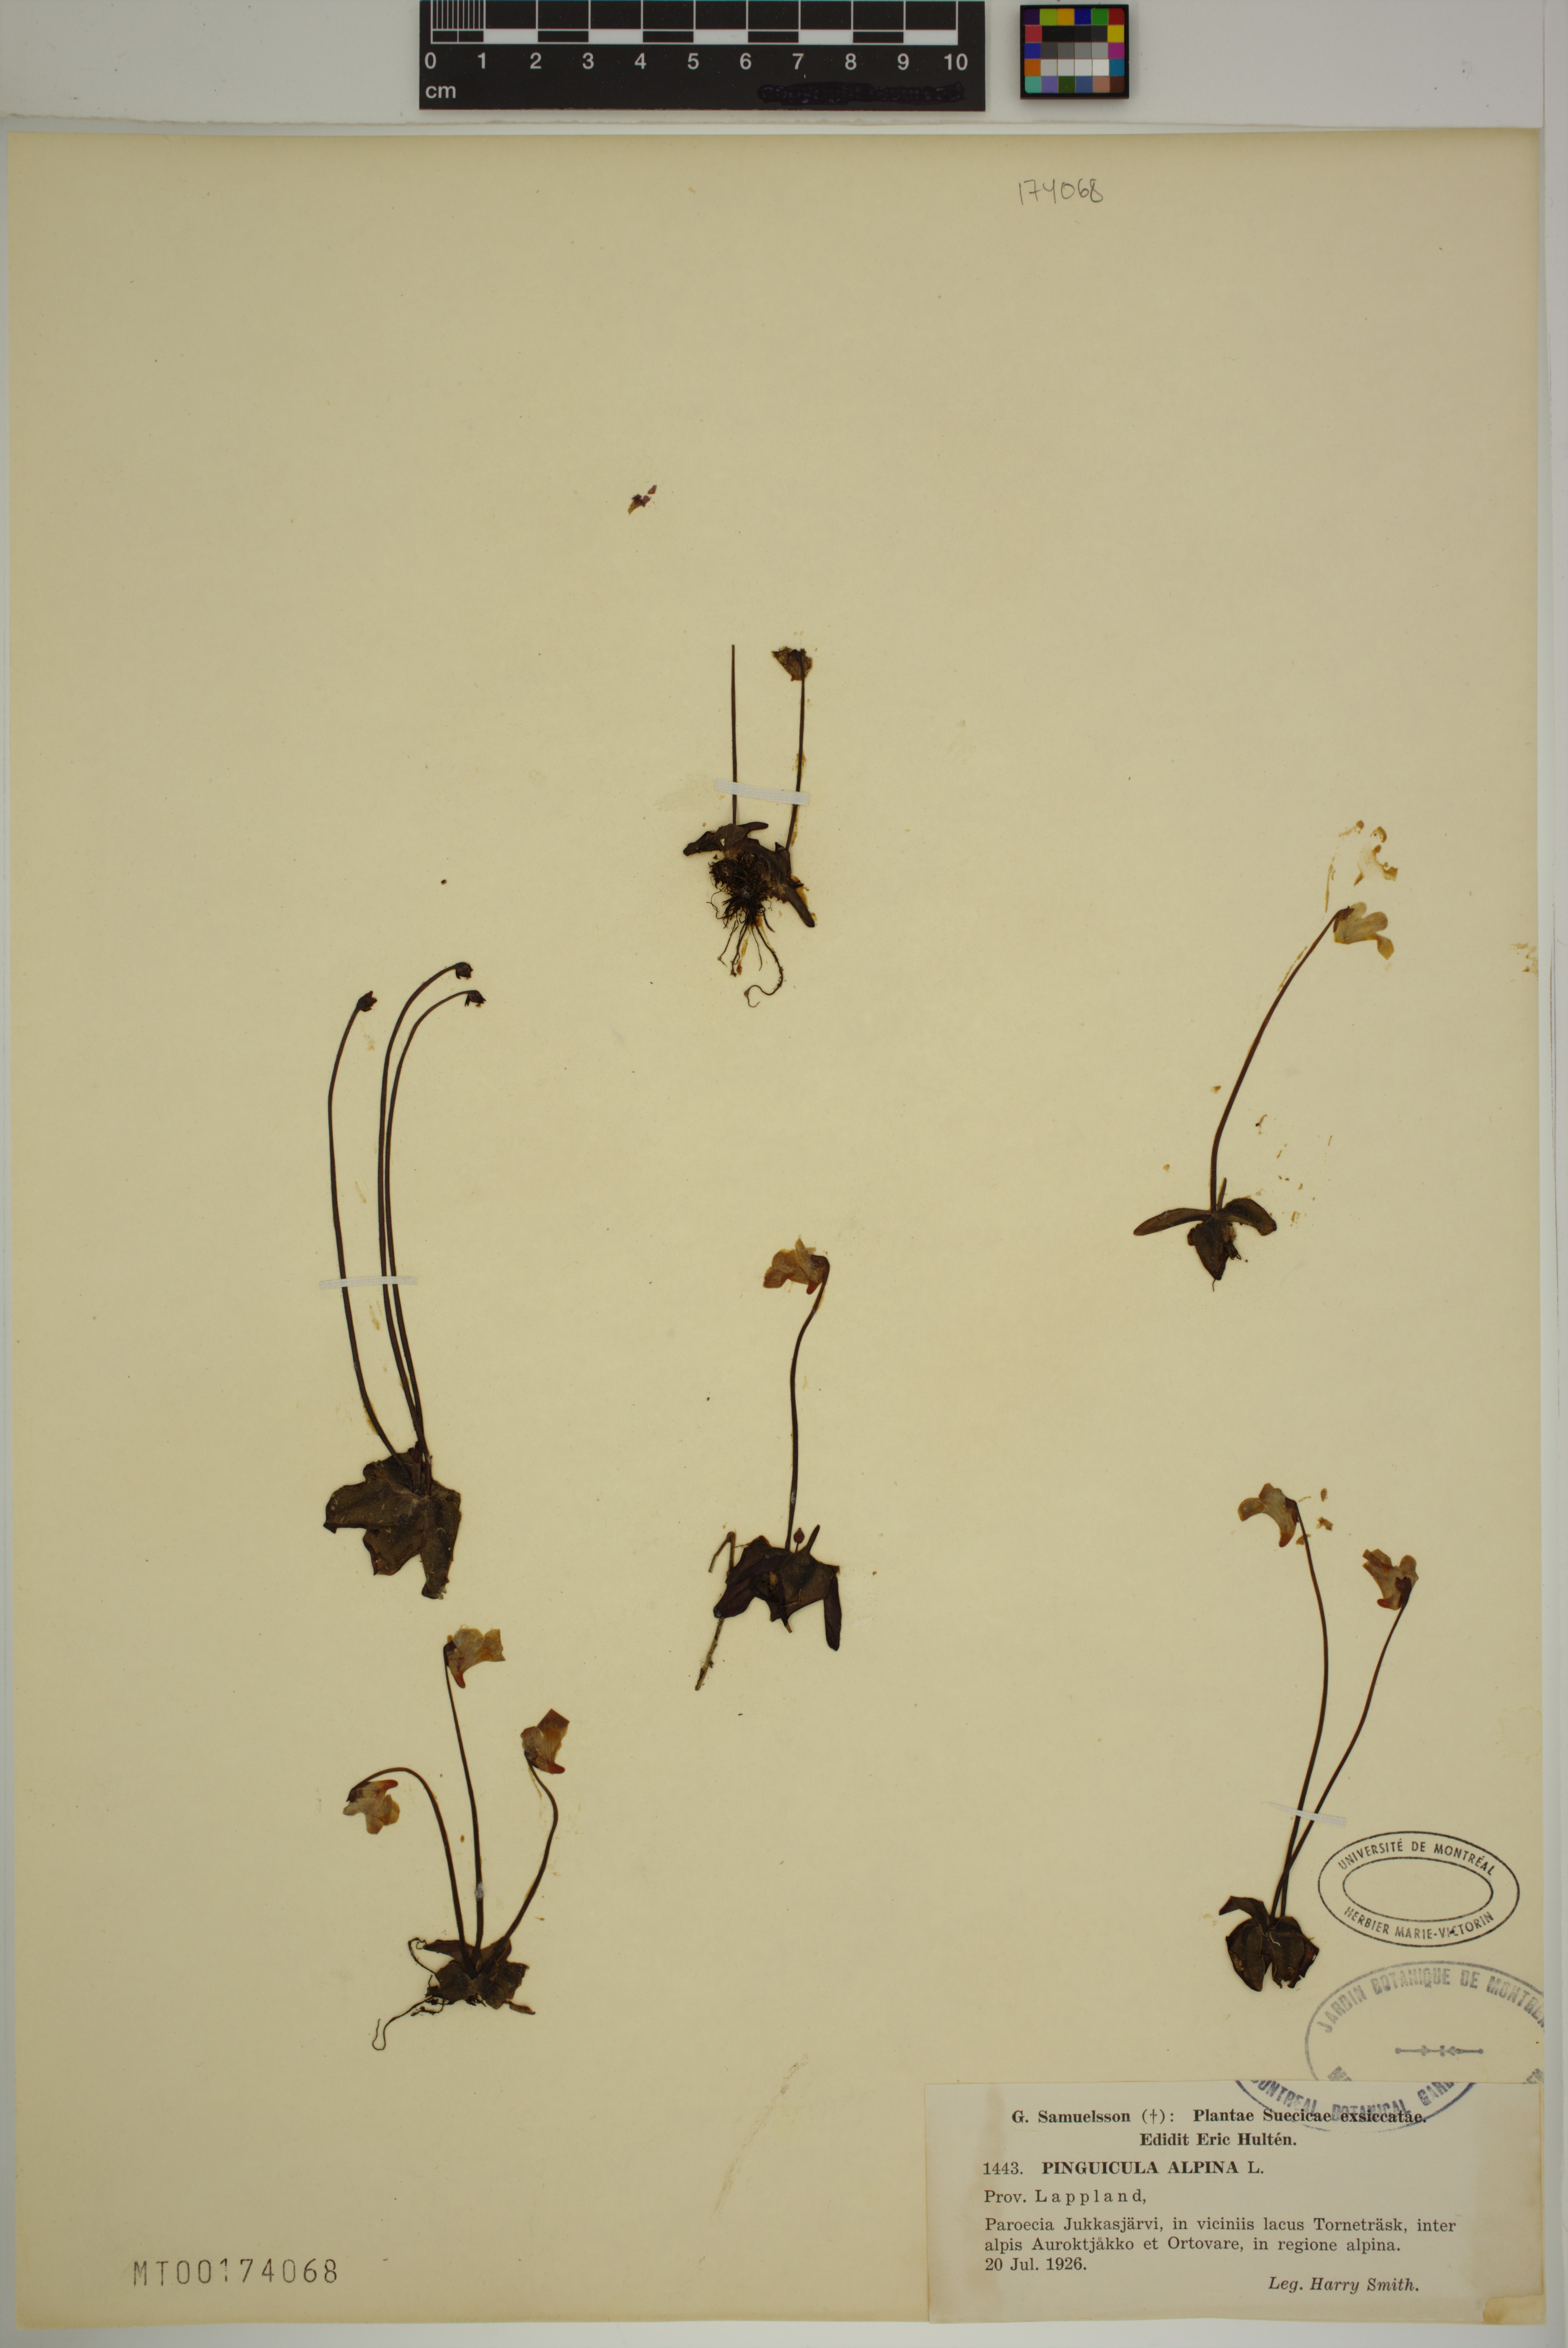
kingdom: Plantae
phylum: Tracheophyta
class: Magnoliopsida
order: Lamiales
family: Lentibulariaceae
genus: Pinguicula
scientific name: Pinguicula alpina
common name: Alpine butterwort
